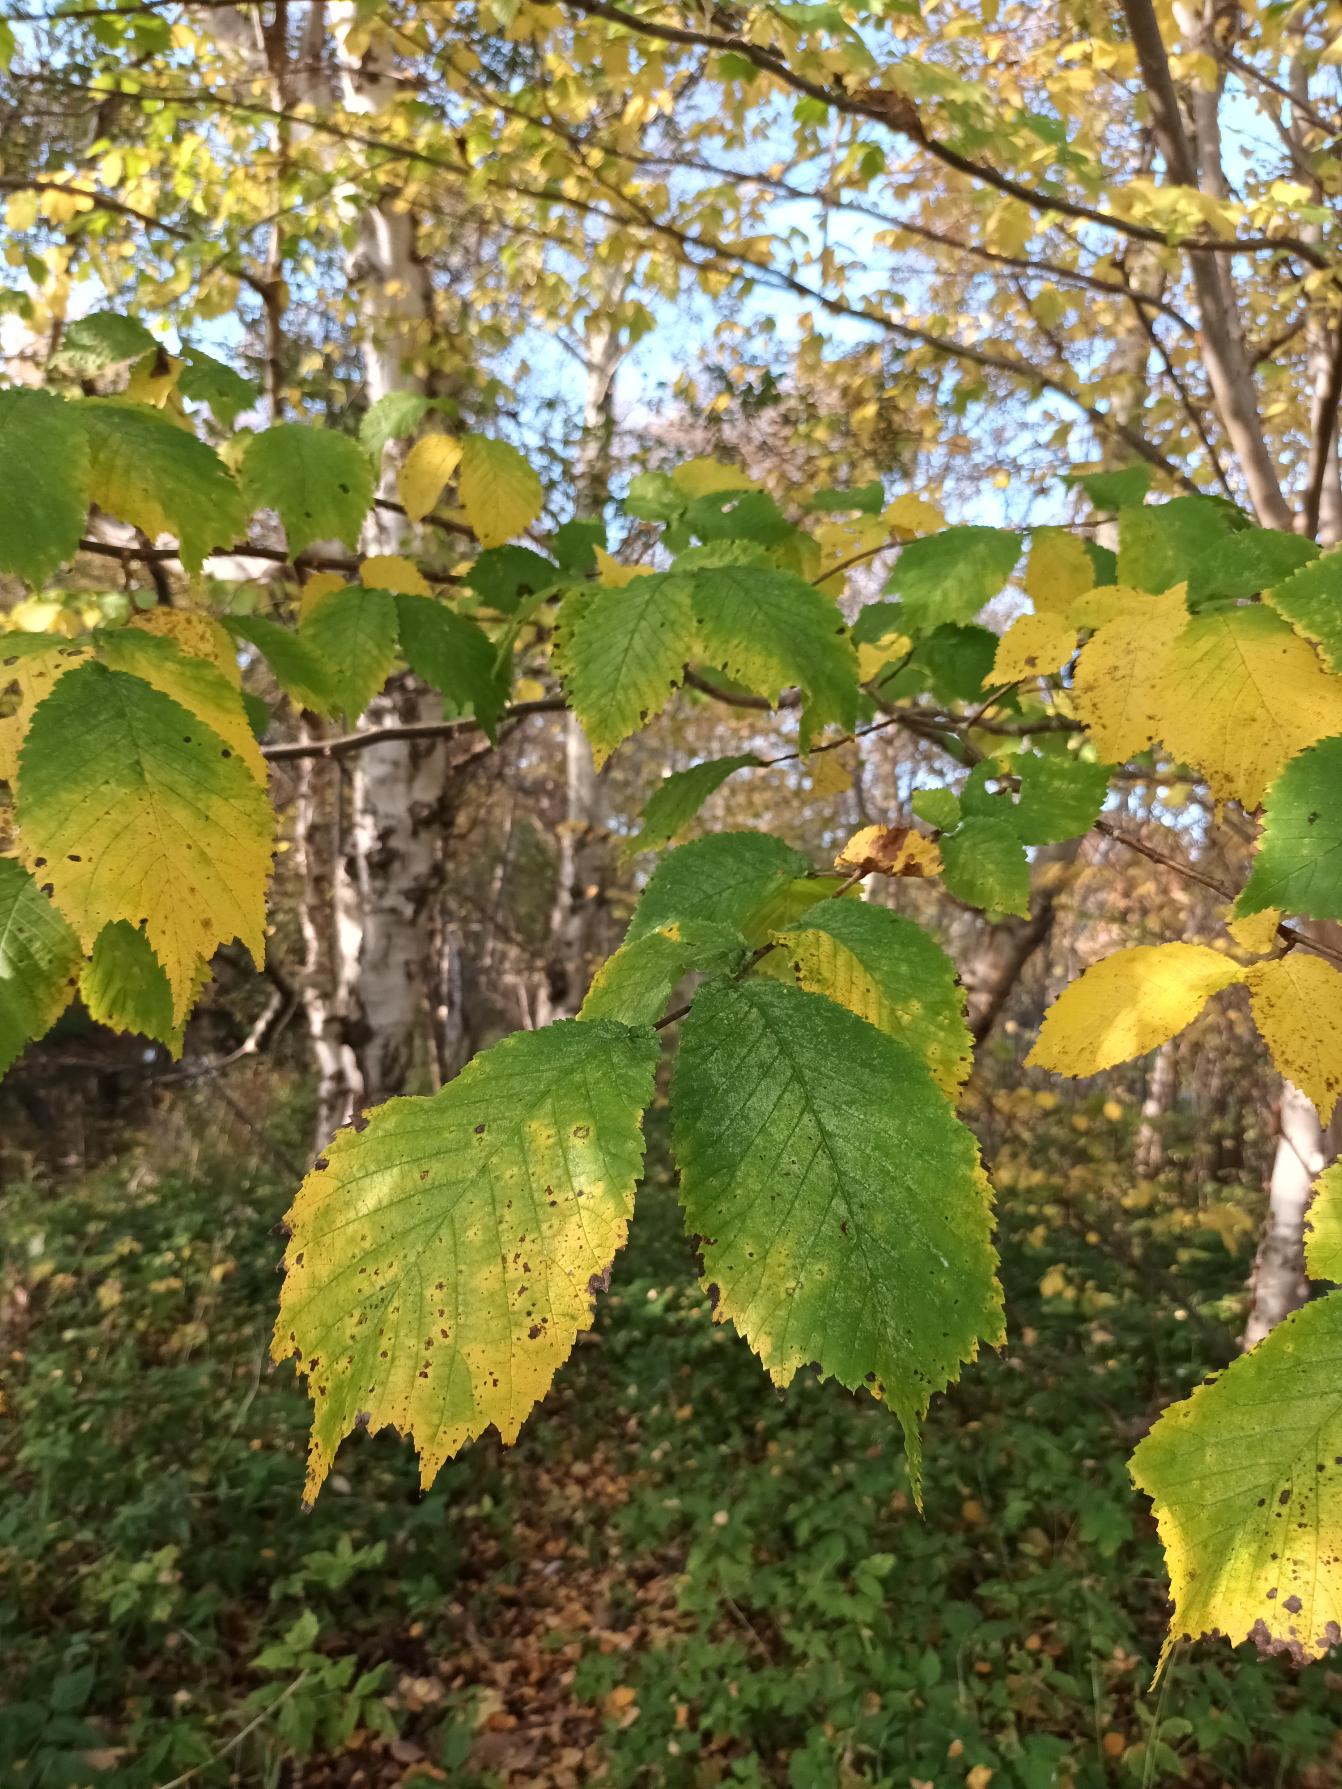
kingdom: Plantae
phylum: Tracheophyta
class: Magnoliopsida
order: Rosales
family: Ulmaceae
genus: Ulmus
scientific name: Ulmus glabra
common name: Skov-elm/storbladet elm
